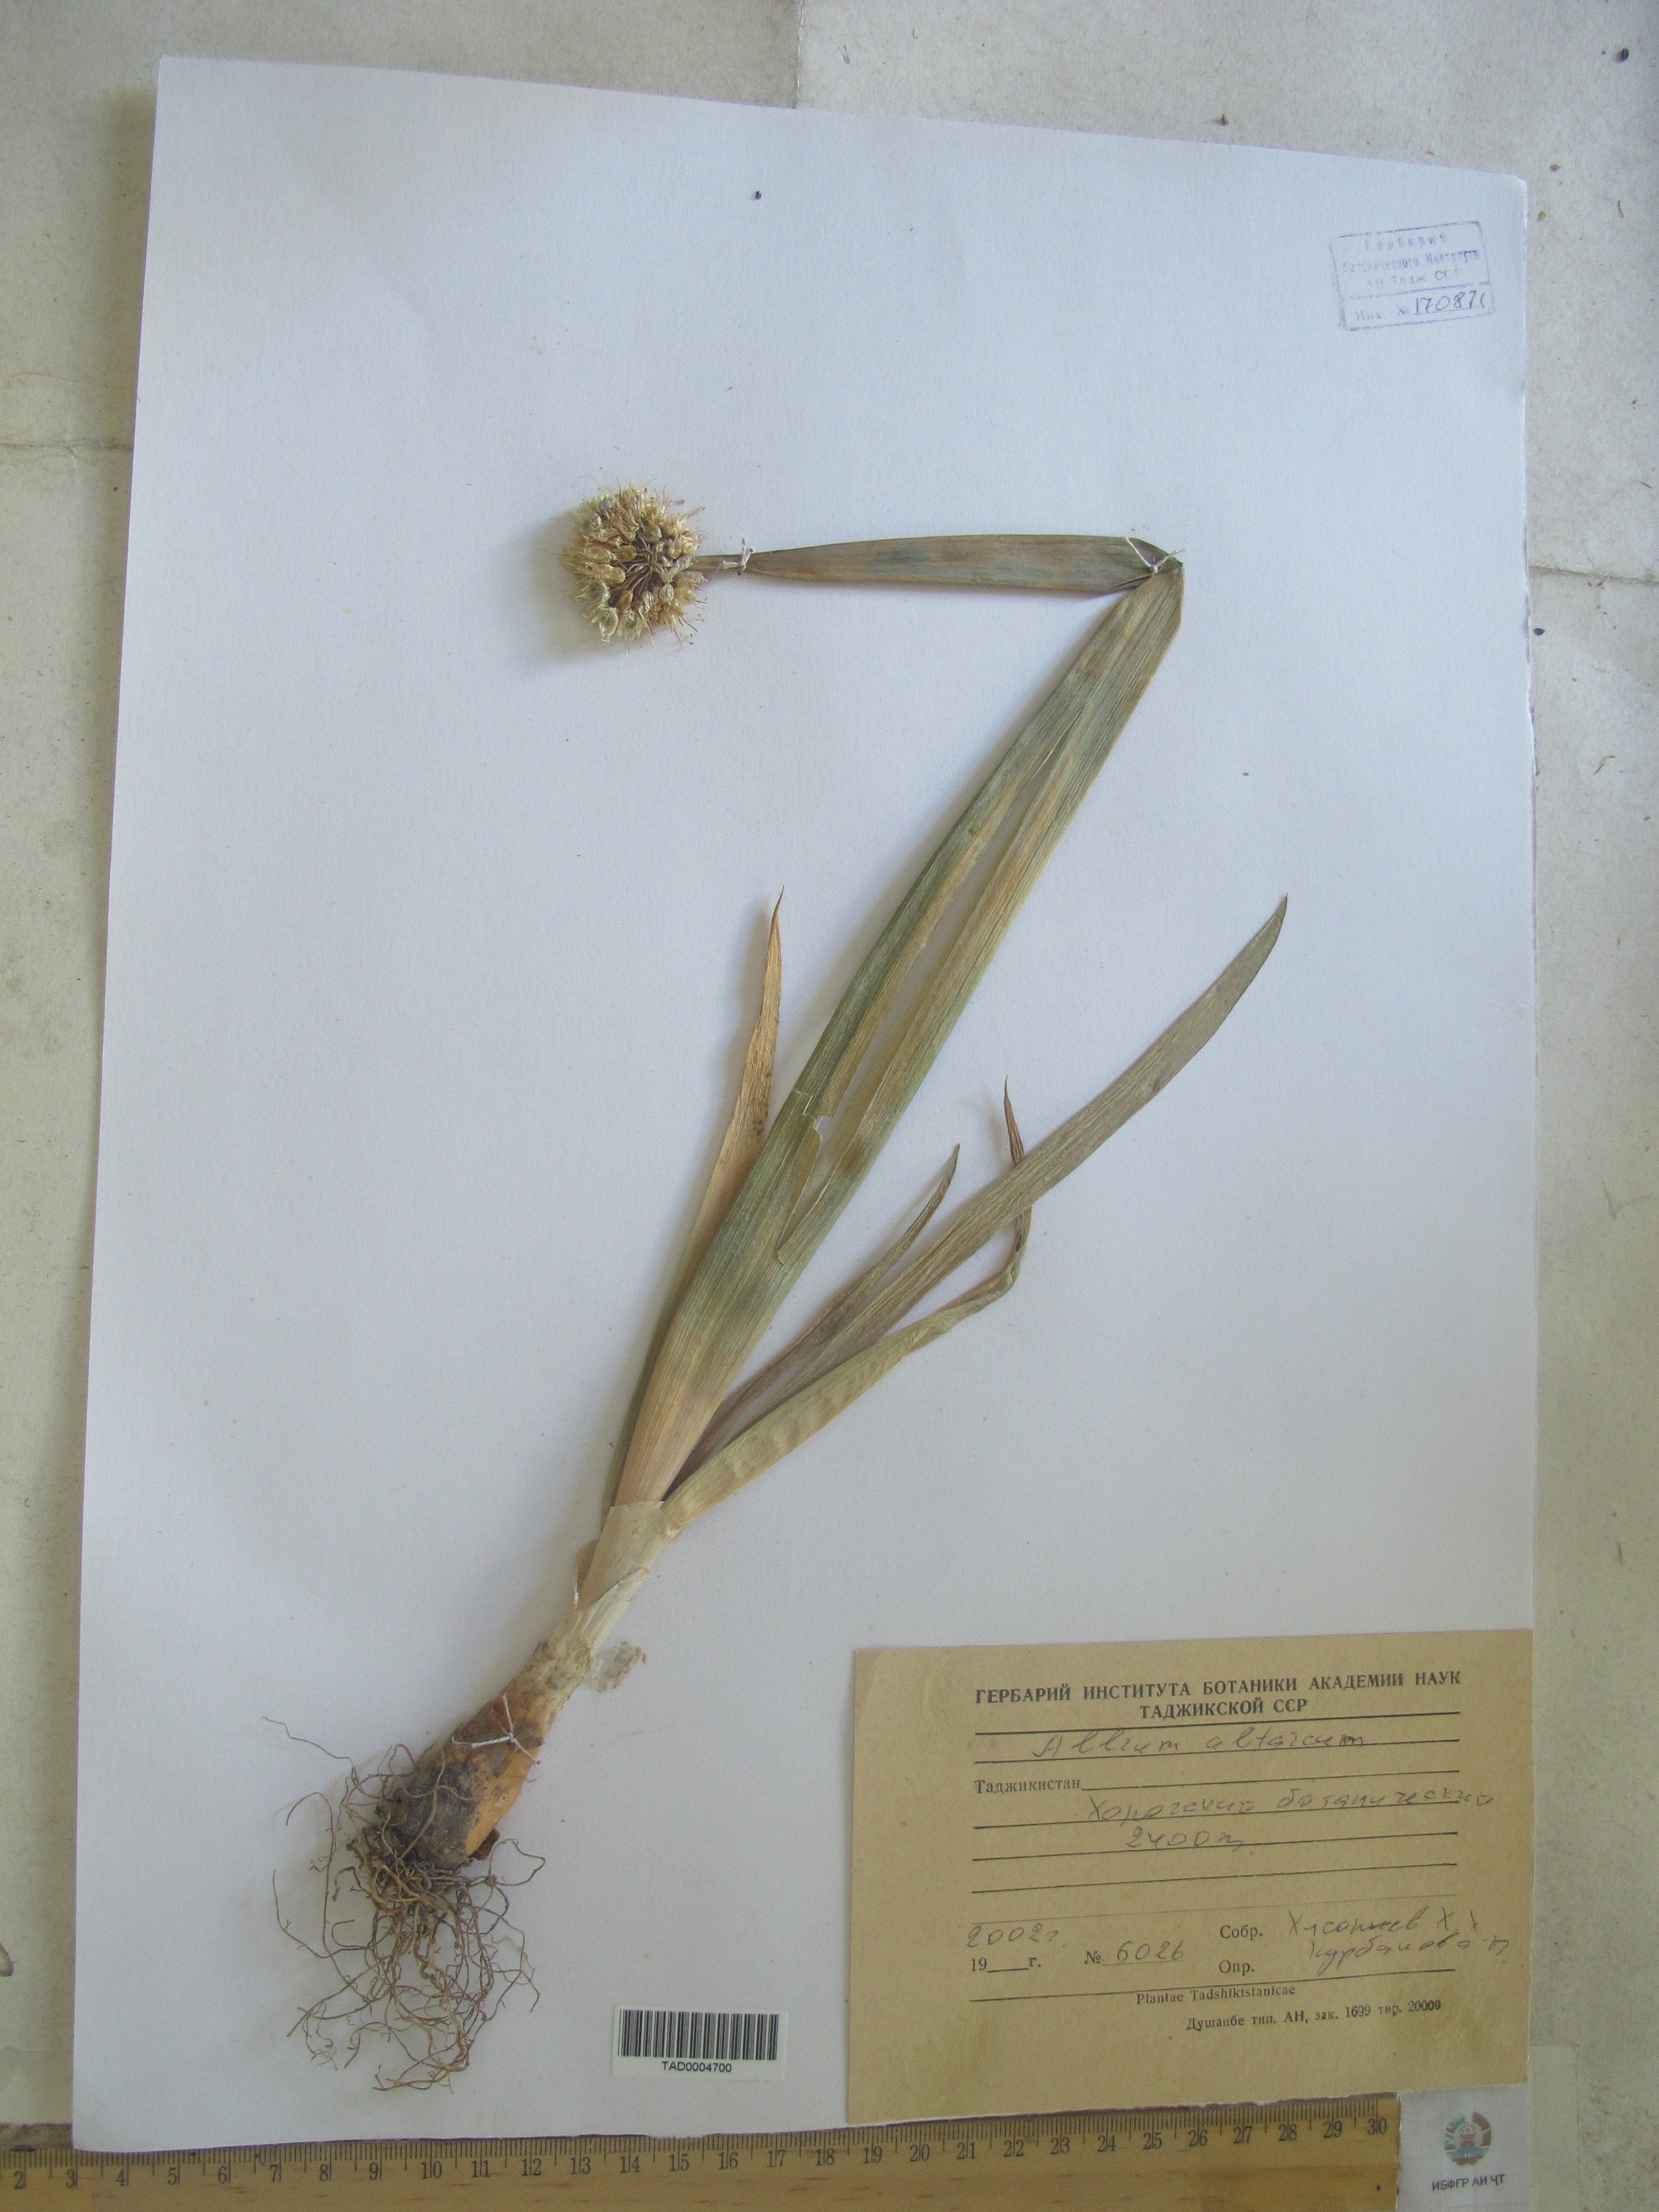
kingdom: Plantae
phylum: Tracheophyta
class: Liliopsida
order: Asparagales
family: Amaryllidaceae
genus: Allium
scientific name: Allium altaicum
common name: Altai onion
